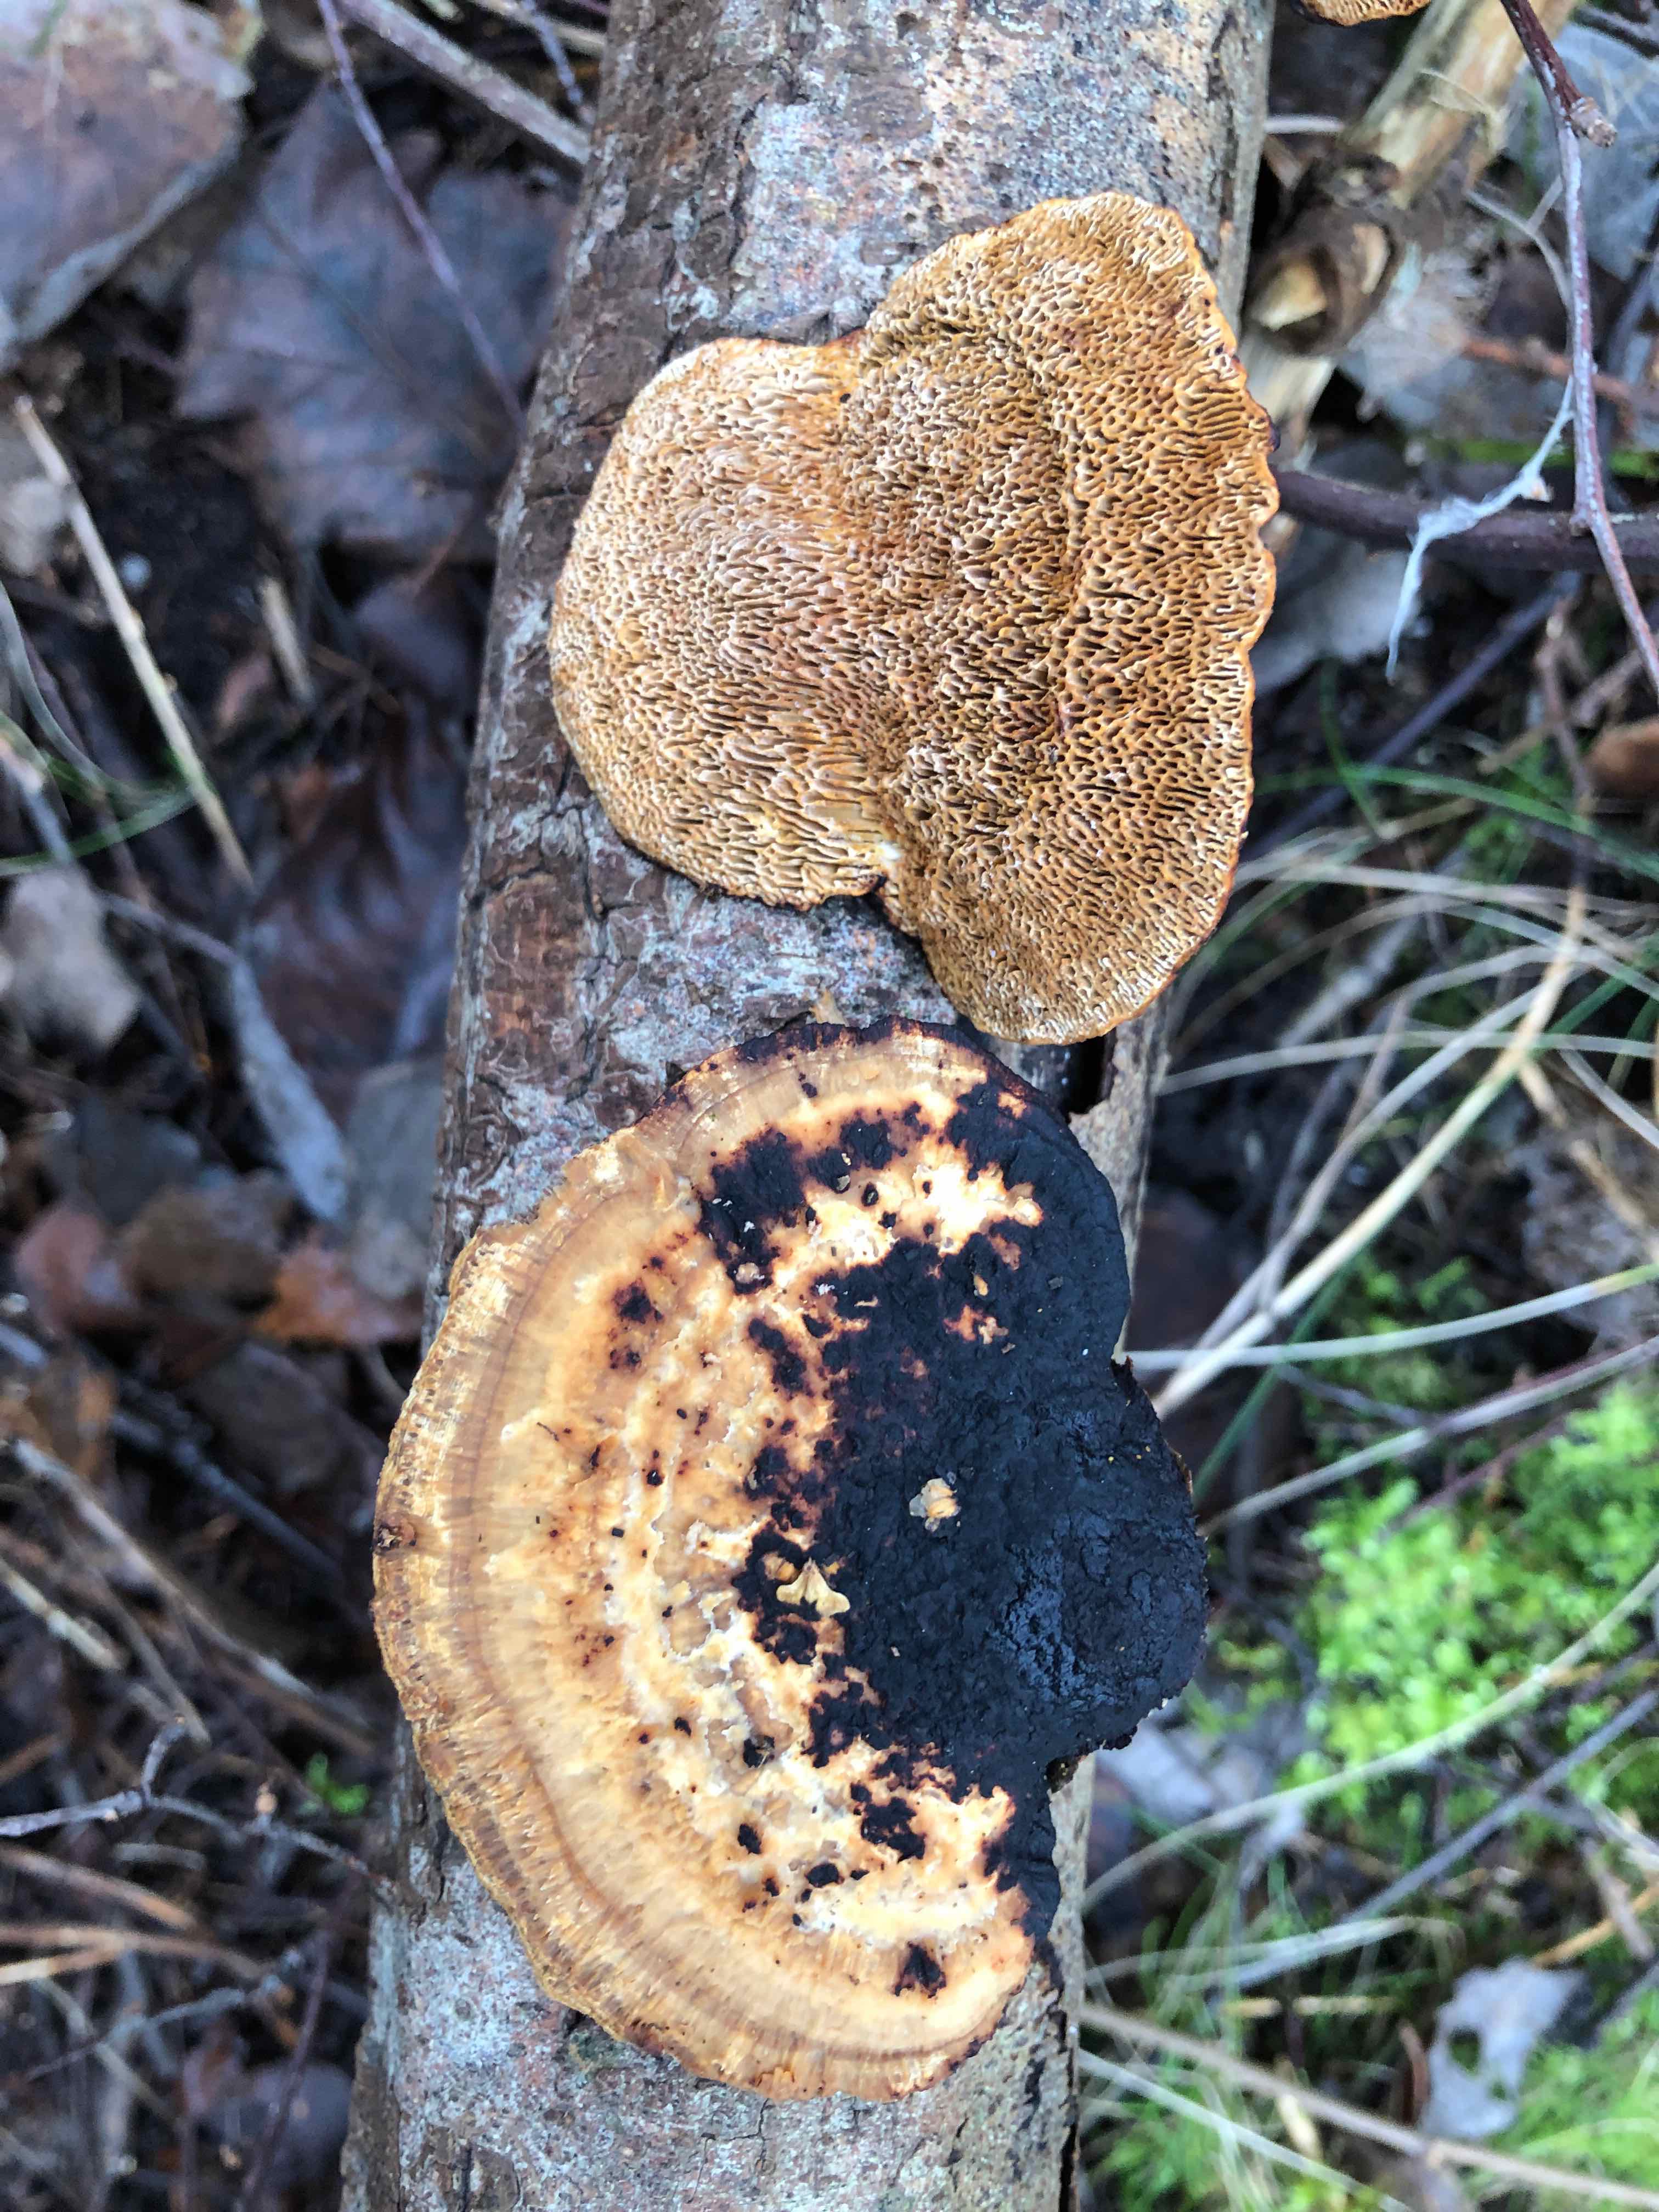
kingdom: Fungi
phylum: Basidiomycota
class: Agaricomycetes
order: Polyporales
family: Polyporaceae
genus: Daedaleopsis
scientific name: Daedaleopsis confragosa
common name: rødmende læderporesvamp
